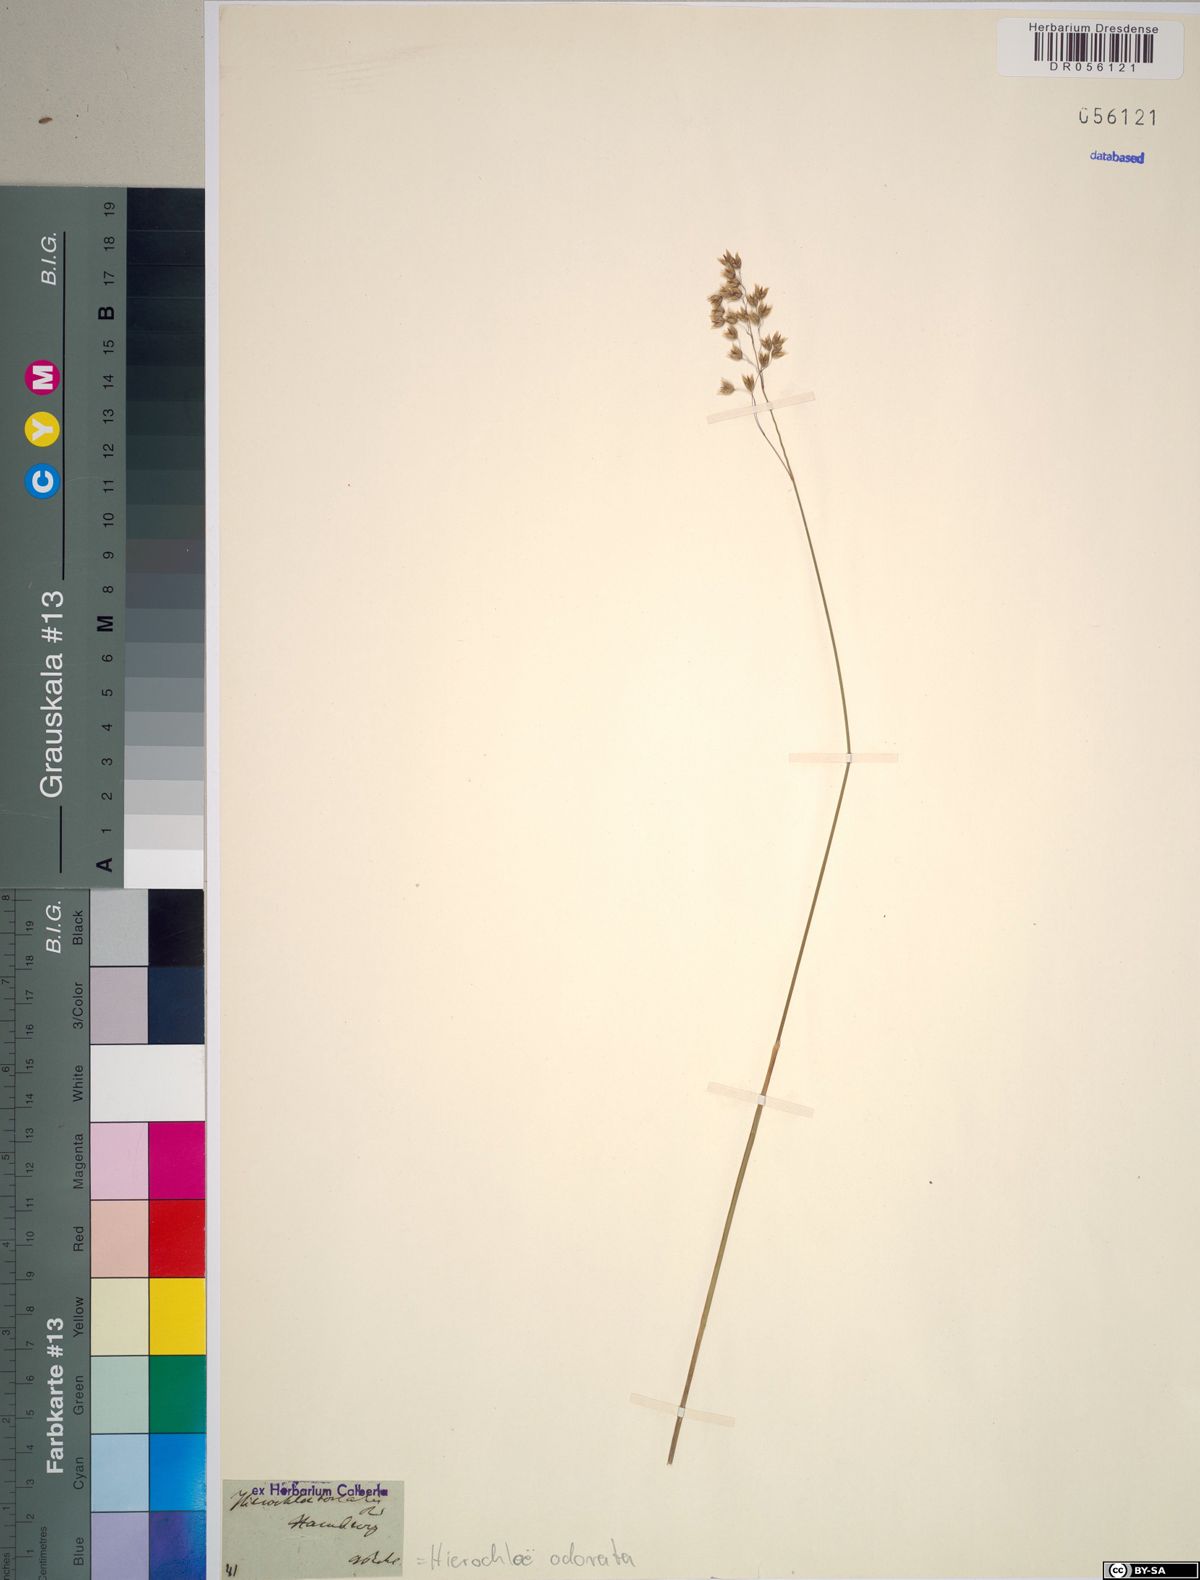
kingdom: Plantae
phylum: Tracheophyta
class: Liliopsida
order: Poales
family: Poaceae
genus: Anthoxanthum
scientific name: Anthoxanthum nitens
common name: Holy grass
